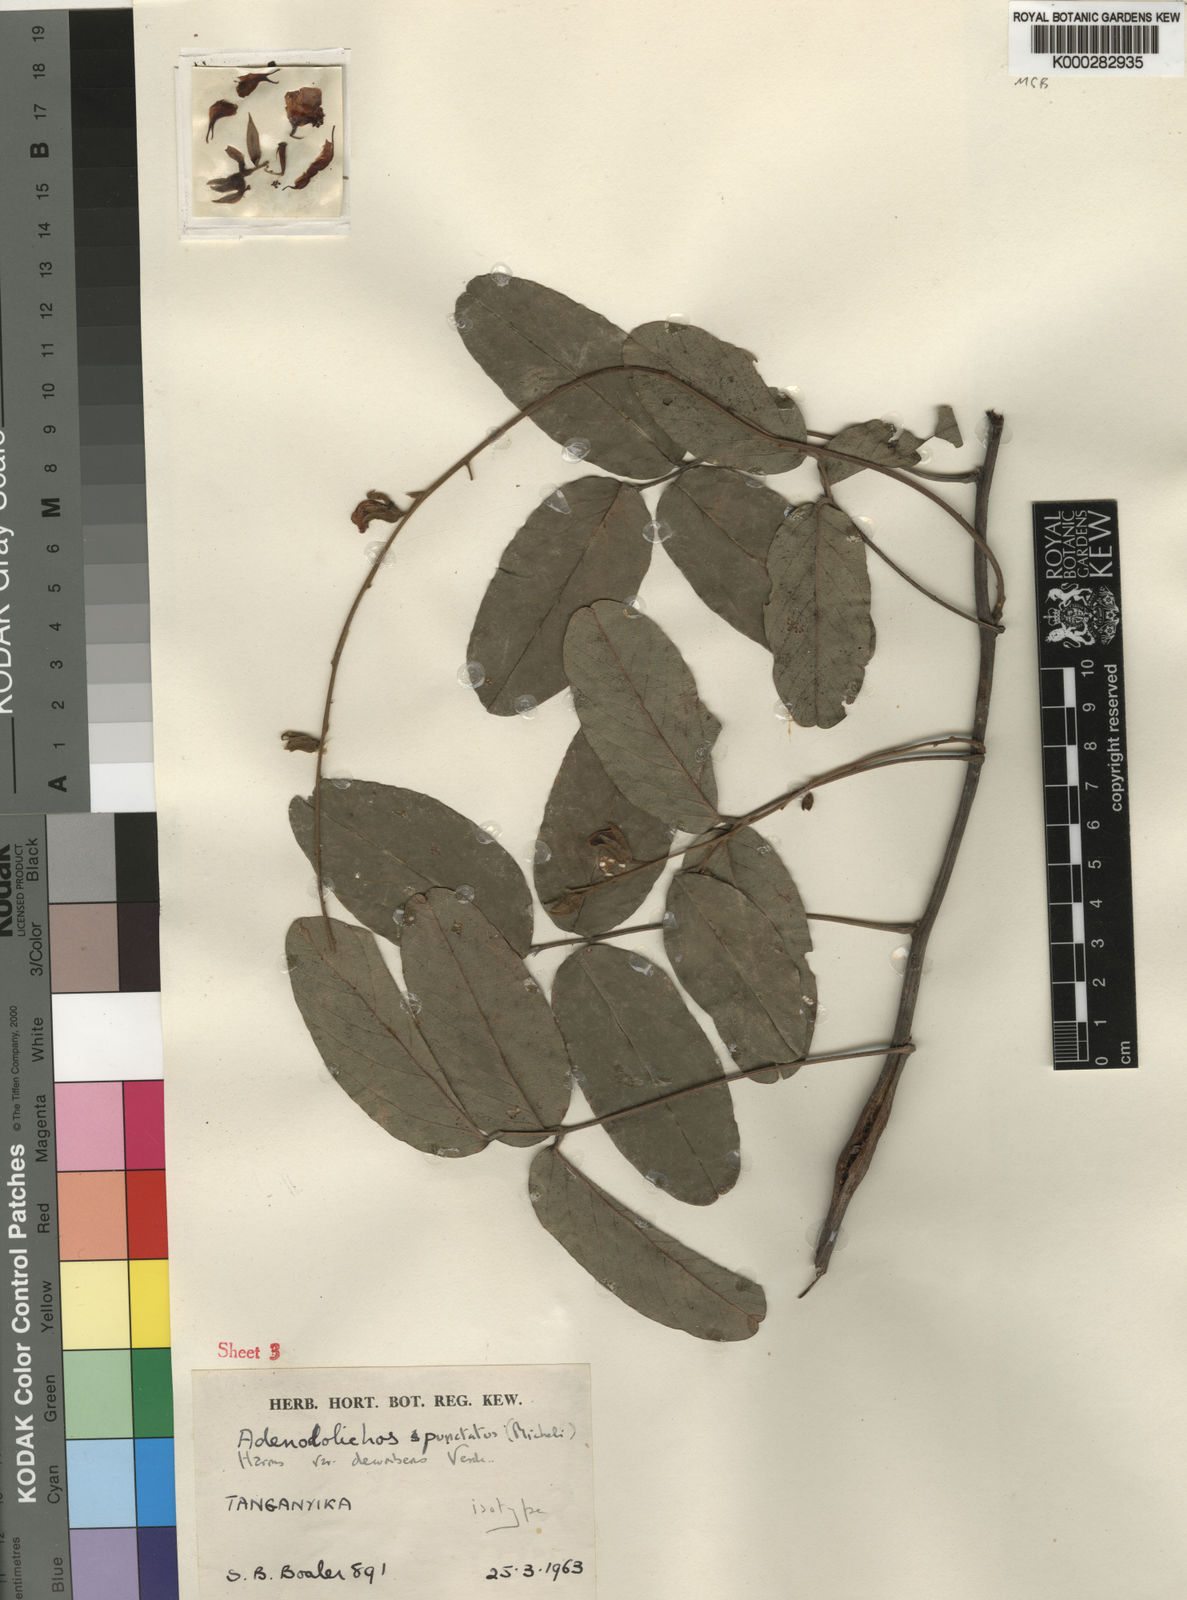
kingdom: Plantae
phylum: Tracheophyta
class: Magnoliopsida
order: Fabales
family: Fabaceae
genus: Adenodolichos
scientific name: Adenodolichos punctatus
